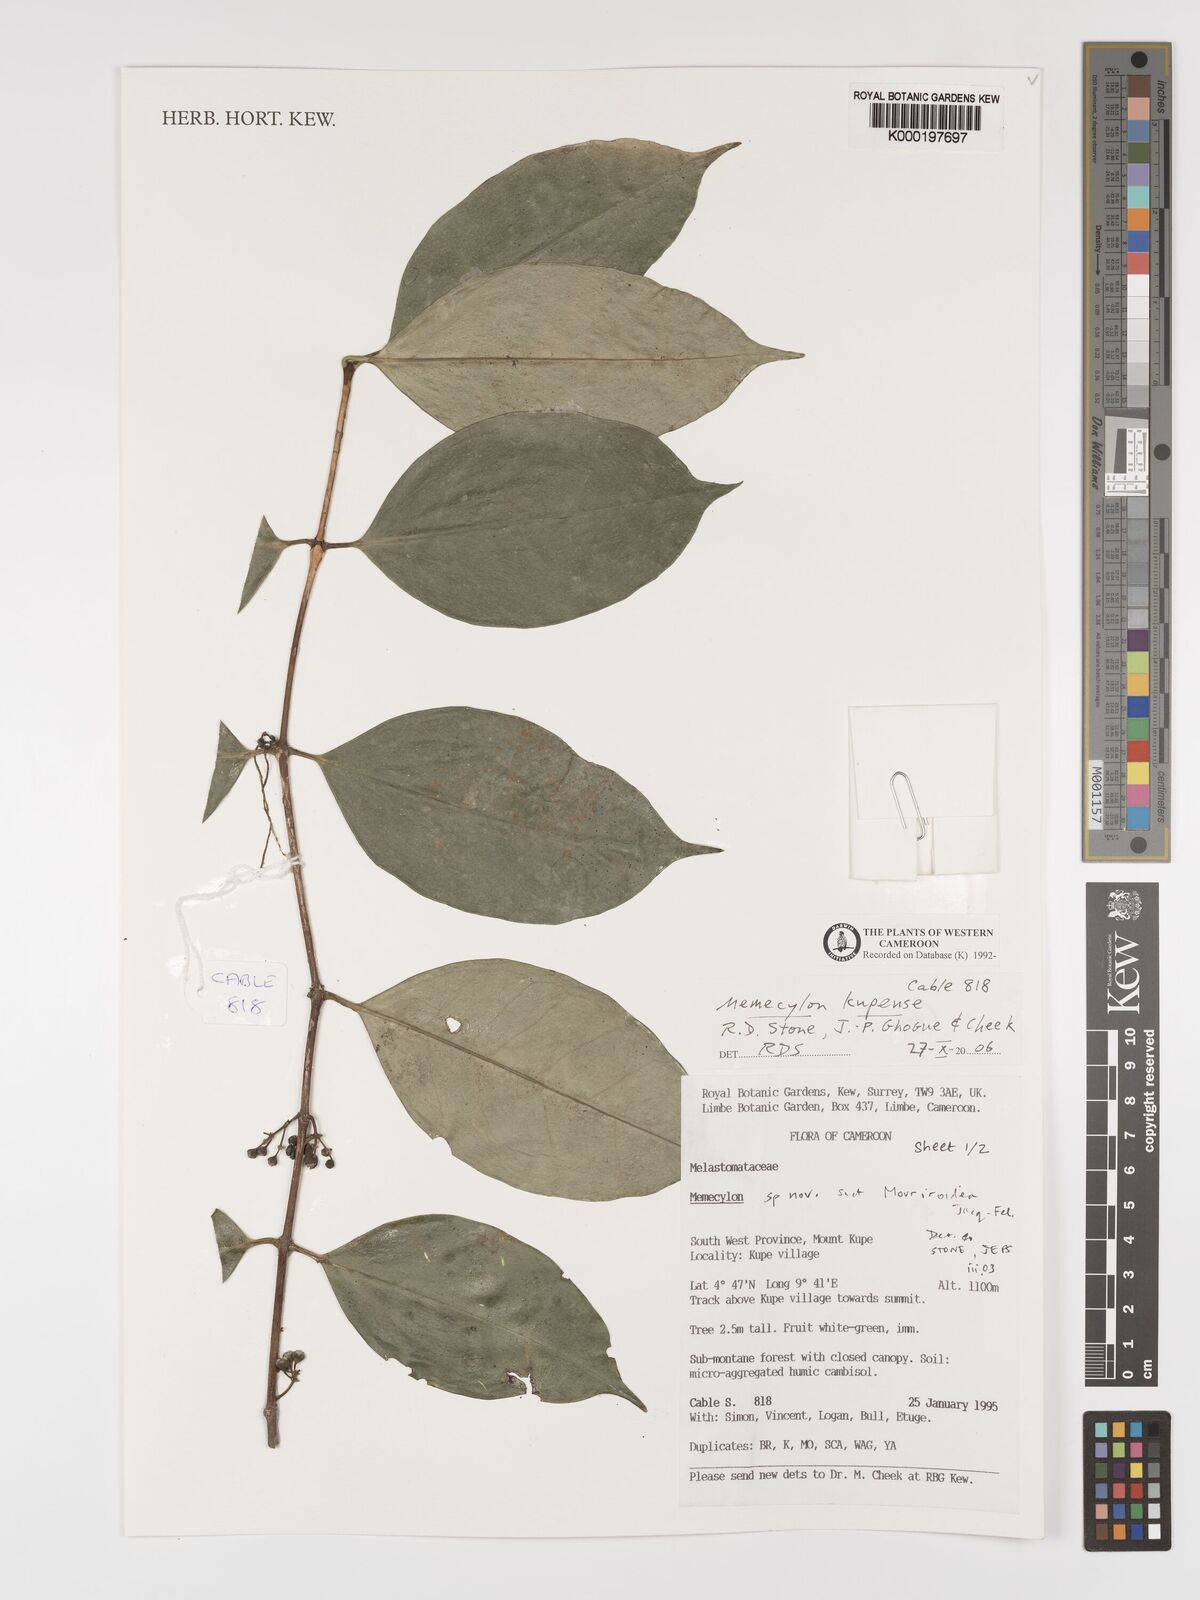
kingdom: Plantae
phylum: Tracheophyta
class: Magnoliopsida
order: Myrtales
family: Melastomataceae
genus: Memecylon
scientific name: Memecylon
